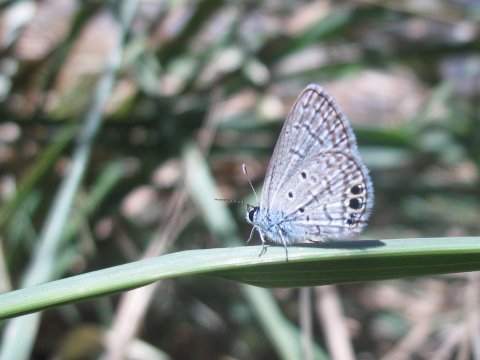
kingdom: Animalia
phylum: Arthropoda
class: Insecta
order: Lepidoptera
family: Lycaenidae
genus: Hemiargus
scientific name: Hemiargus ceraunus
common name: Ceraunus Blue
